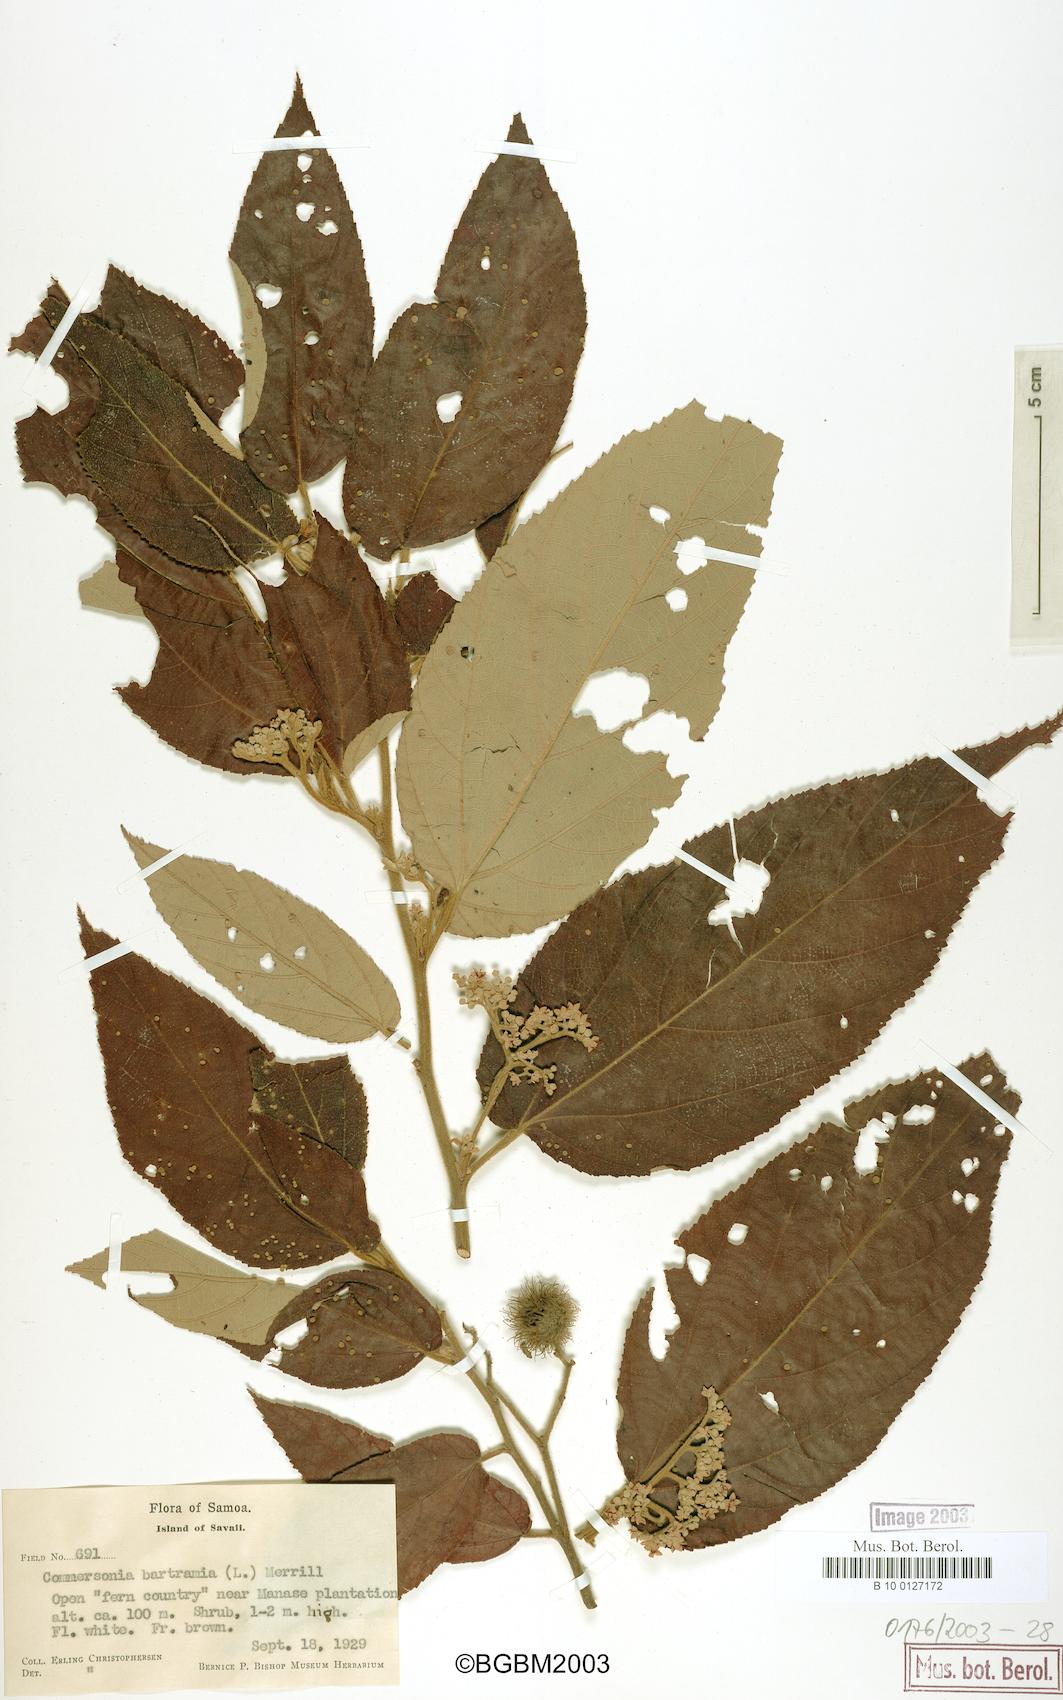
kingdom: Plantae
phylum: Tracheophyta
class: Magnoliopsida
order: Malvales
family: Malvaceae
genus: Commersonia
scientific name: Commersonia bartramia
